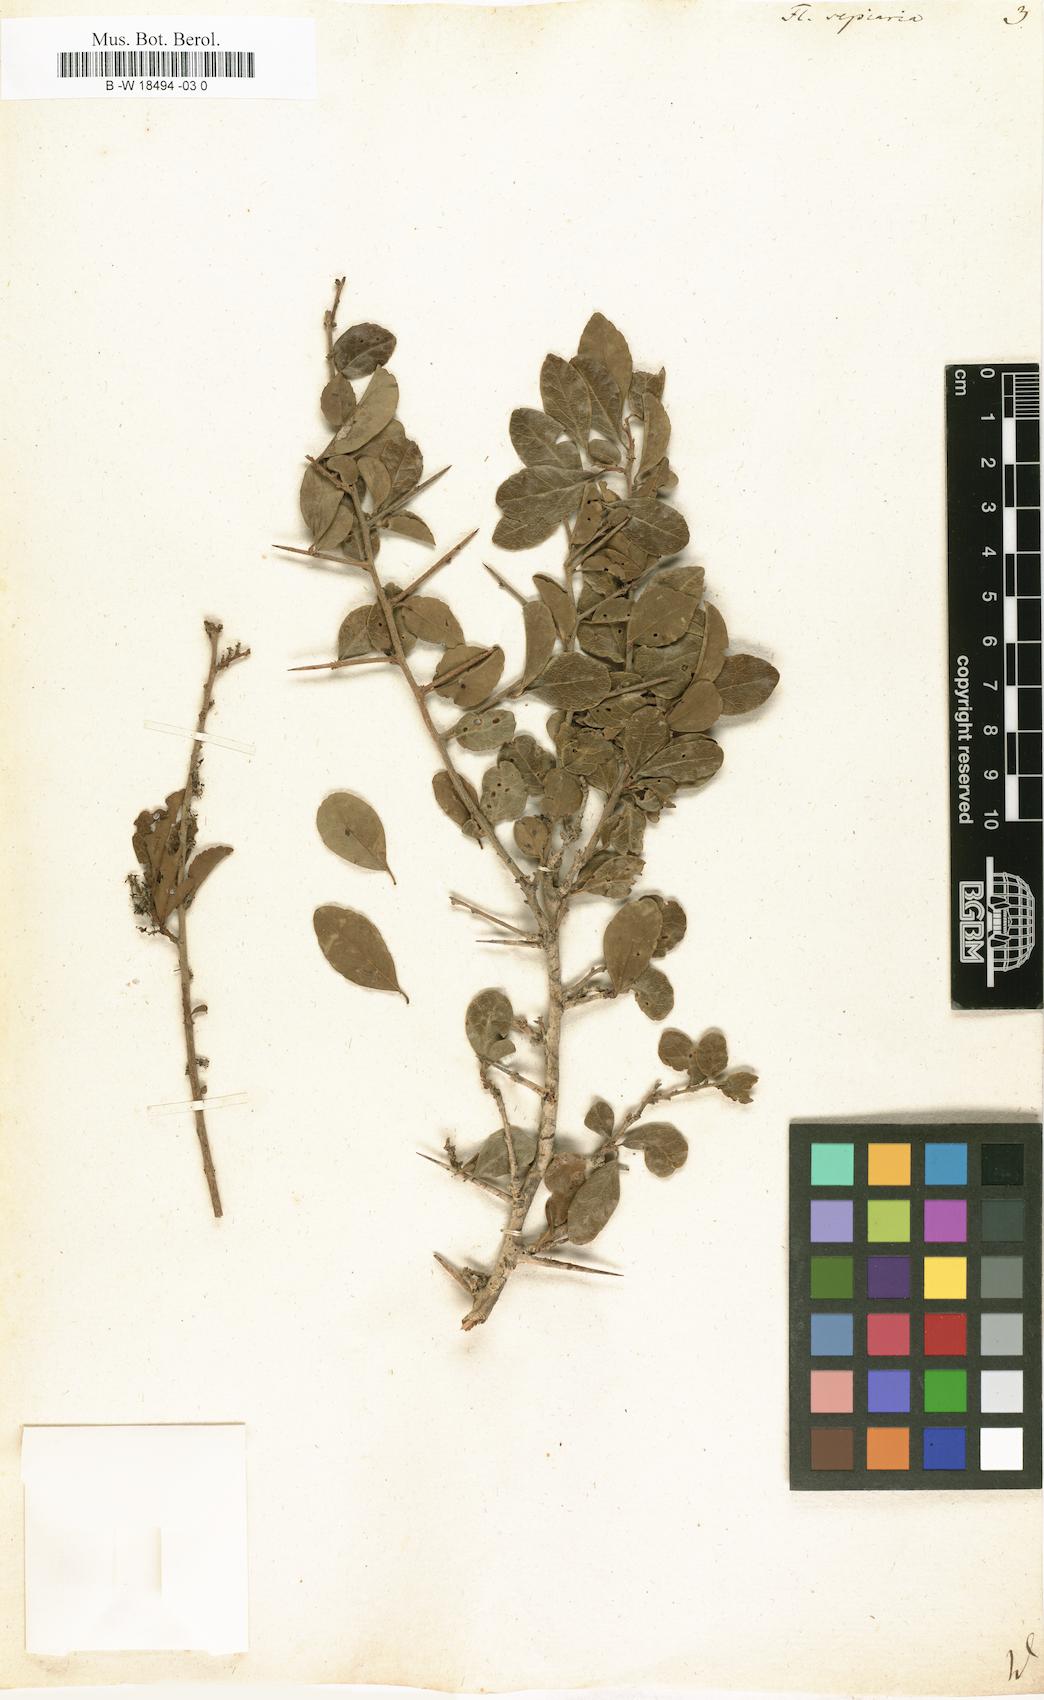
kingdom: Plantae
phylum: Tracheophyta
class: Magnoliopsida
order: Malpighiales
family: Salicaceae
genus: Flacourtia
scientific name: Flacourtia indica
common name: Governor's plum
